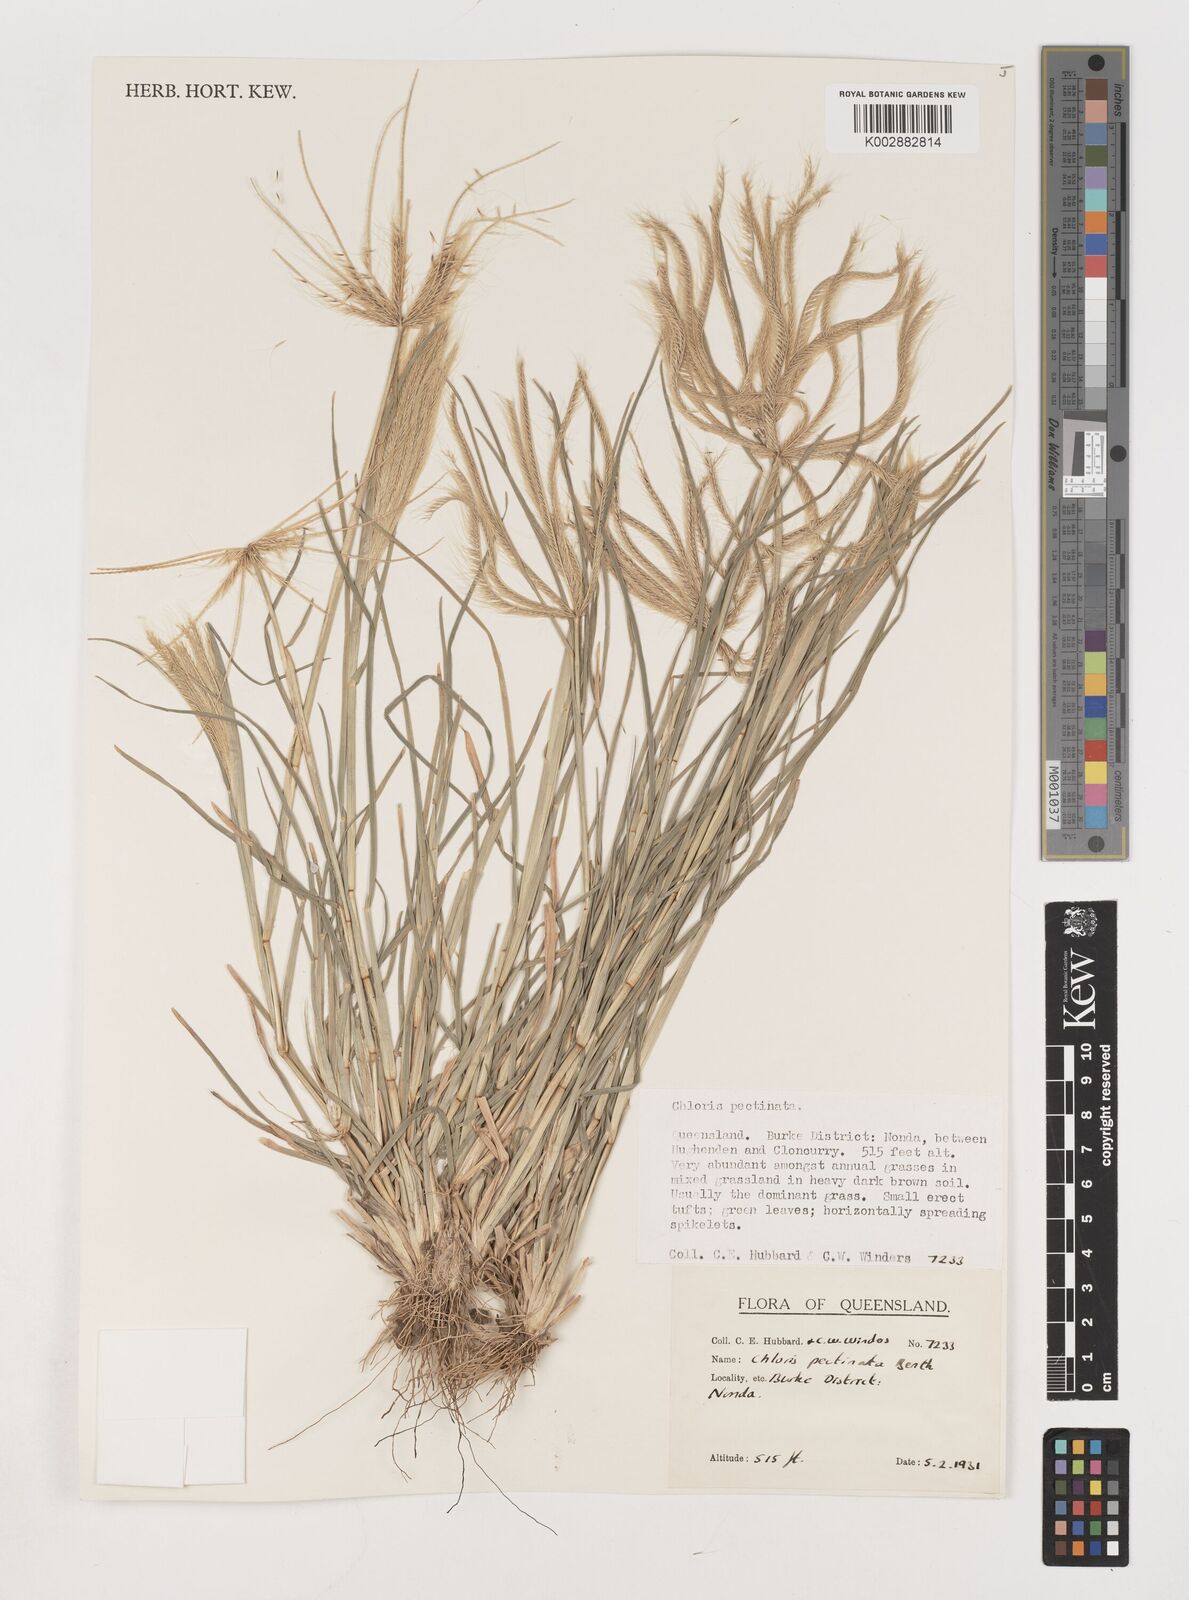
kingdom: Plantae
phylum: Tracheophyta
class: Liliopsida
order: Poales
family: Poaceae
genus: Chloris
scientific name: Chloris pectinata
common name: Comb windmill grass
